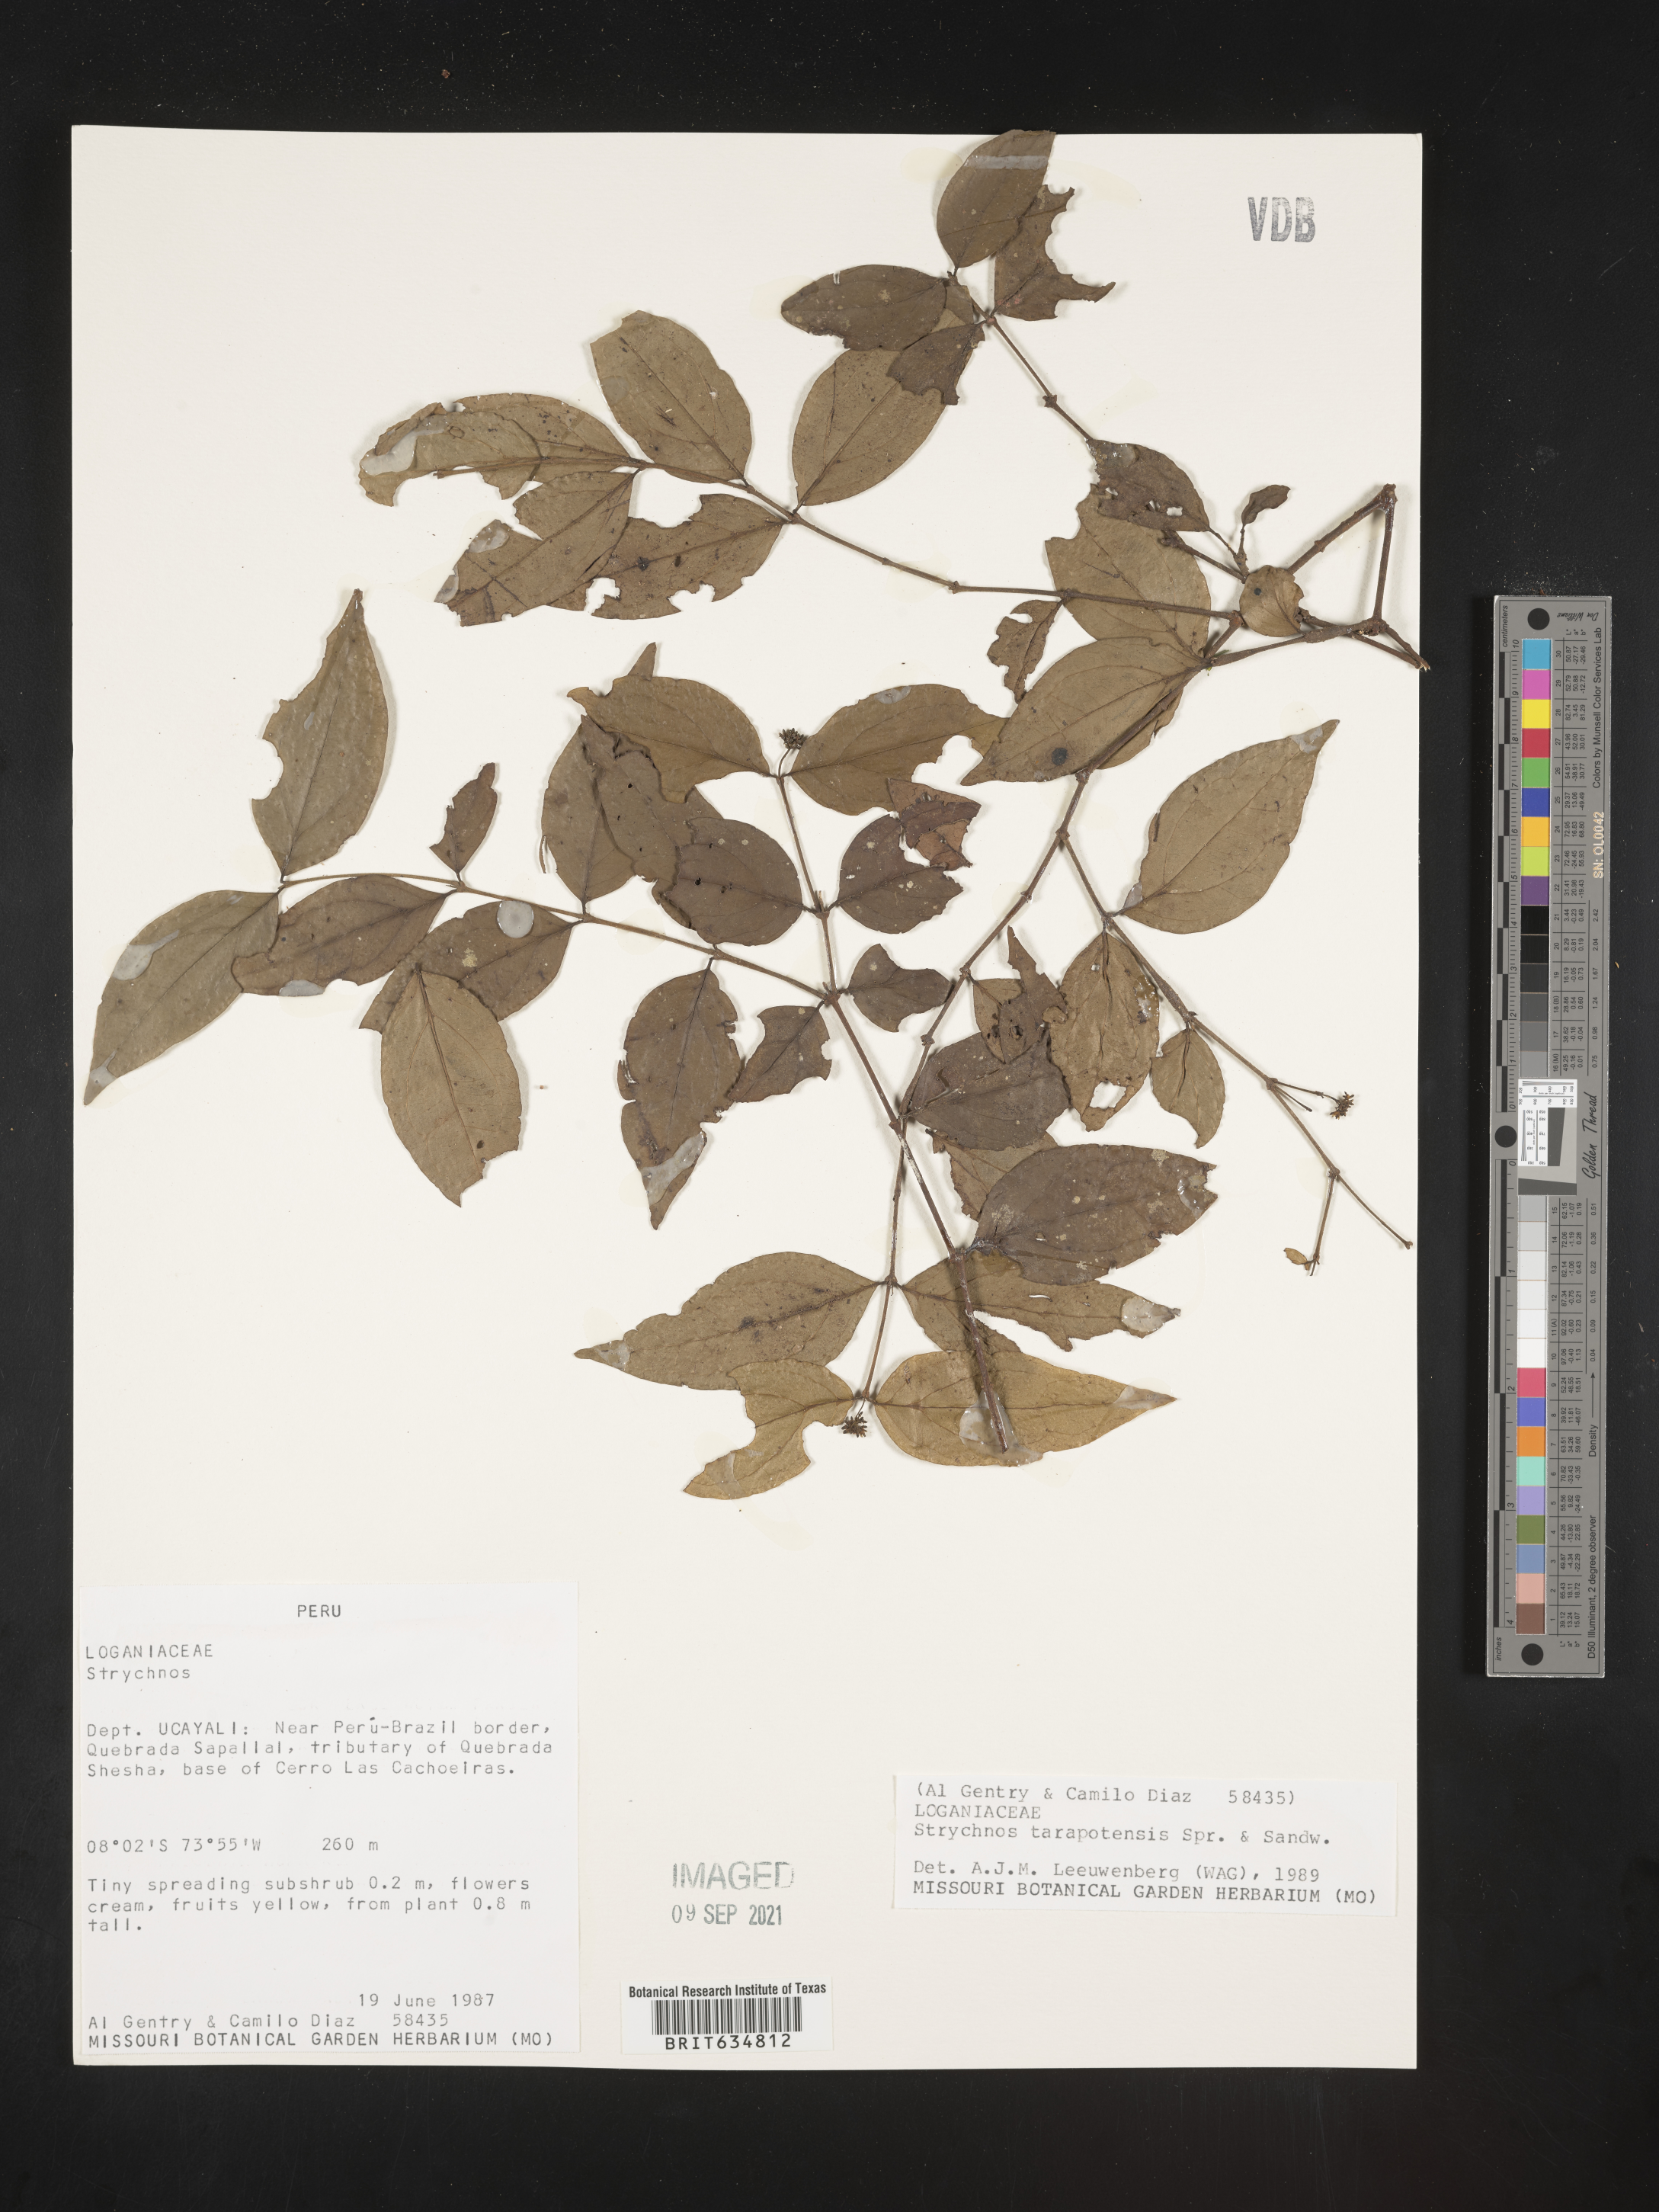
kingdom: Plantae
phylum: Tracheophyta
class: Magnoliopsida
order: Gentianales
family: Loganiaceae
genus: Strychnos
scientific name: Strychnos
